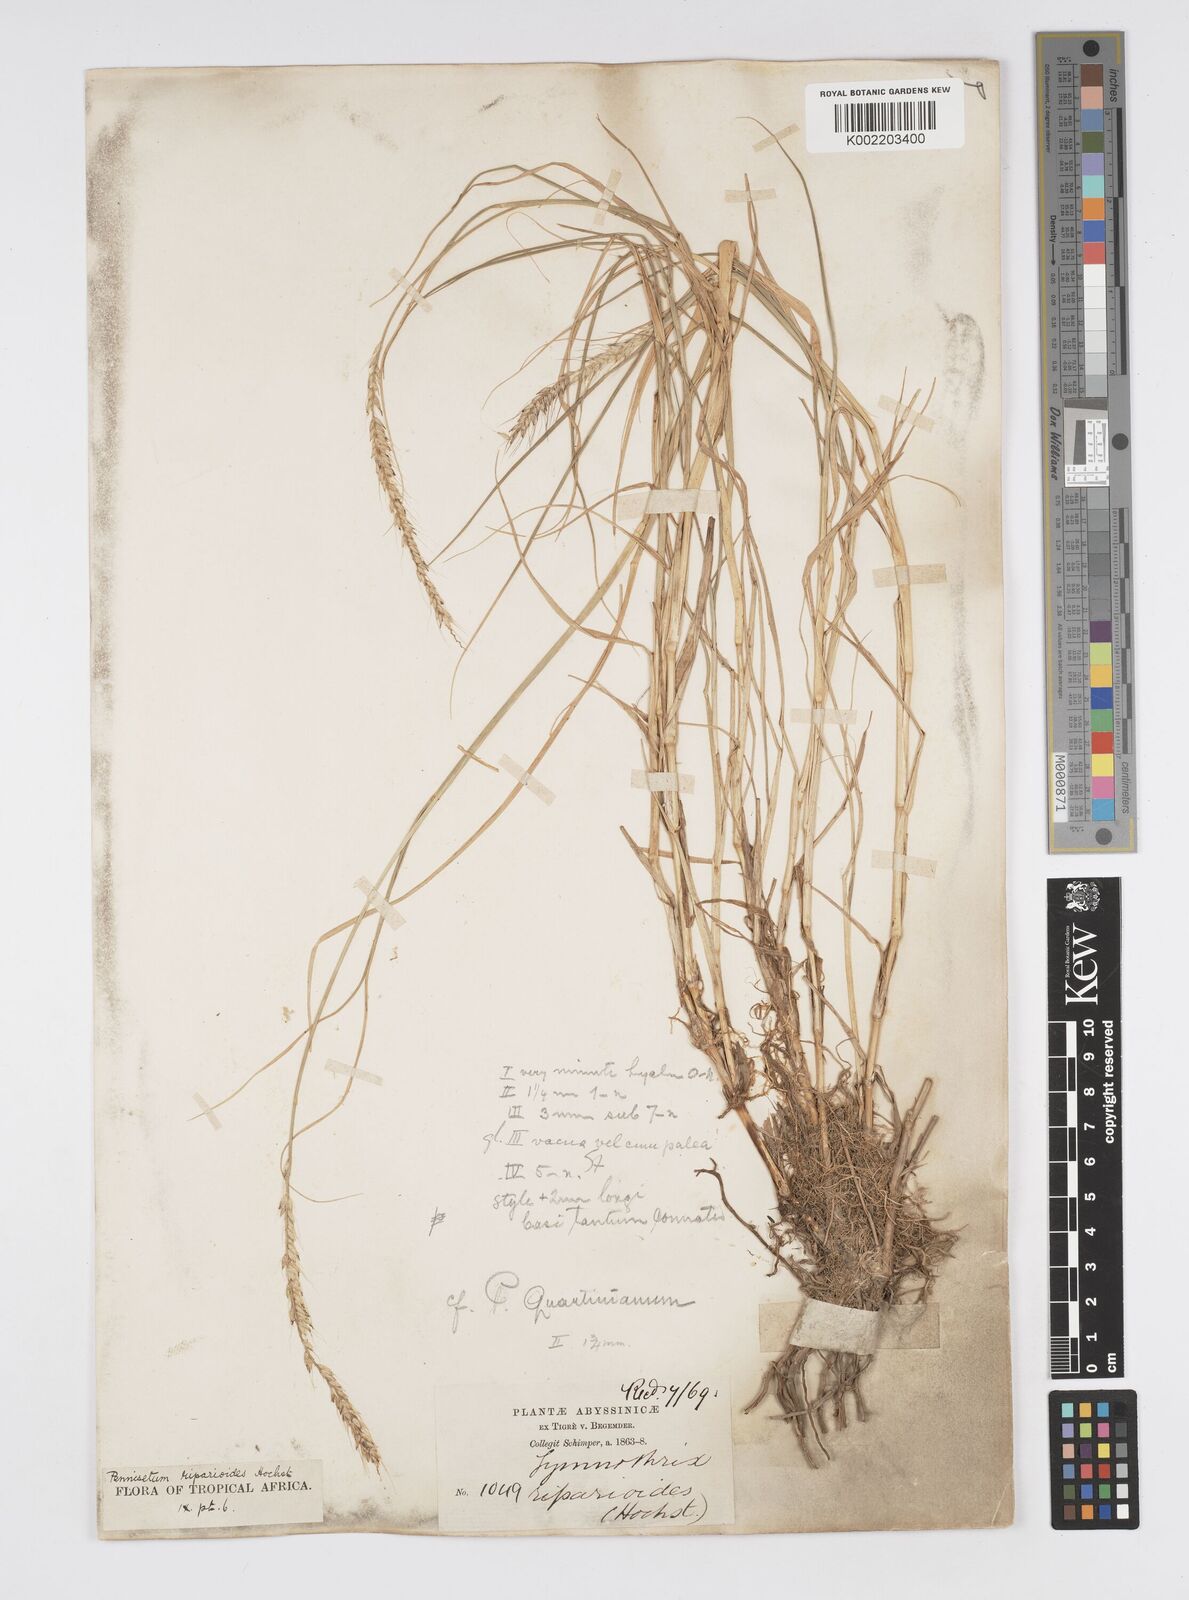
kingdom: Plantae
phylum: Tracheophyta
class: Liliopsida
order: Poales
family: Poaceae
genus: Cenchrus
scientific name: Cenchrus caudatus
